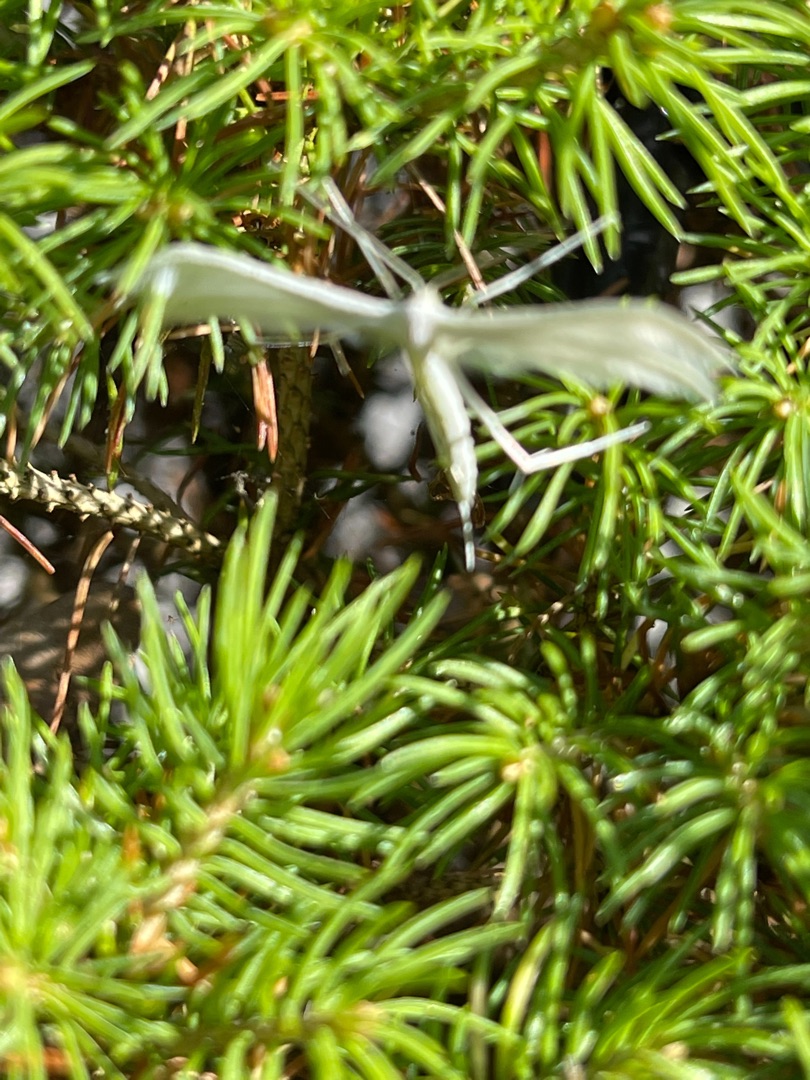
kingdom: Animalia
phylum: Arthropoda
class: Insecta
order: Lepidoptera
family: Pterophoridae
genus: Pterophorus
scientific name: Pterophorus pentadactyla
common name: Hvidt fjermøl
